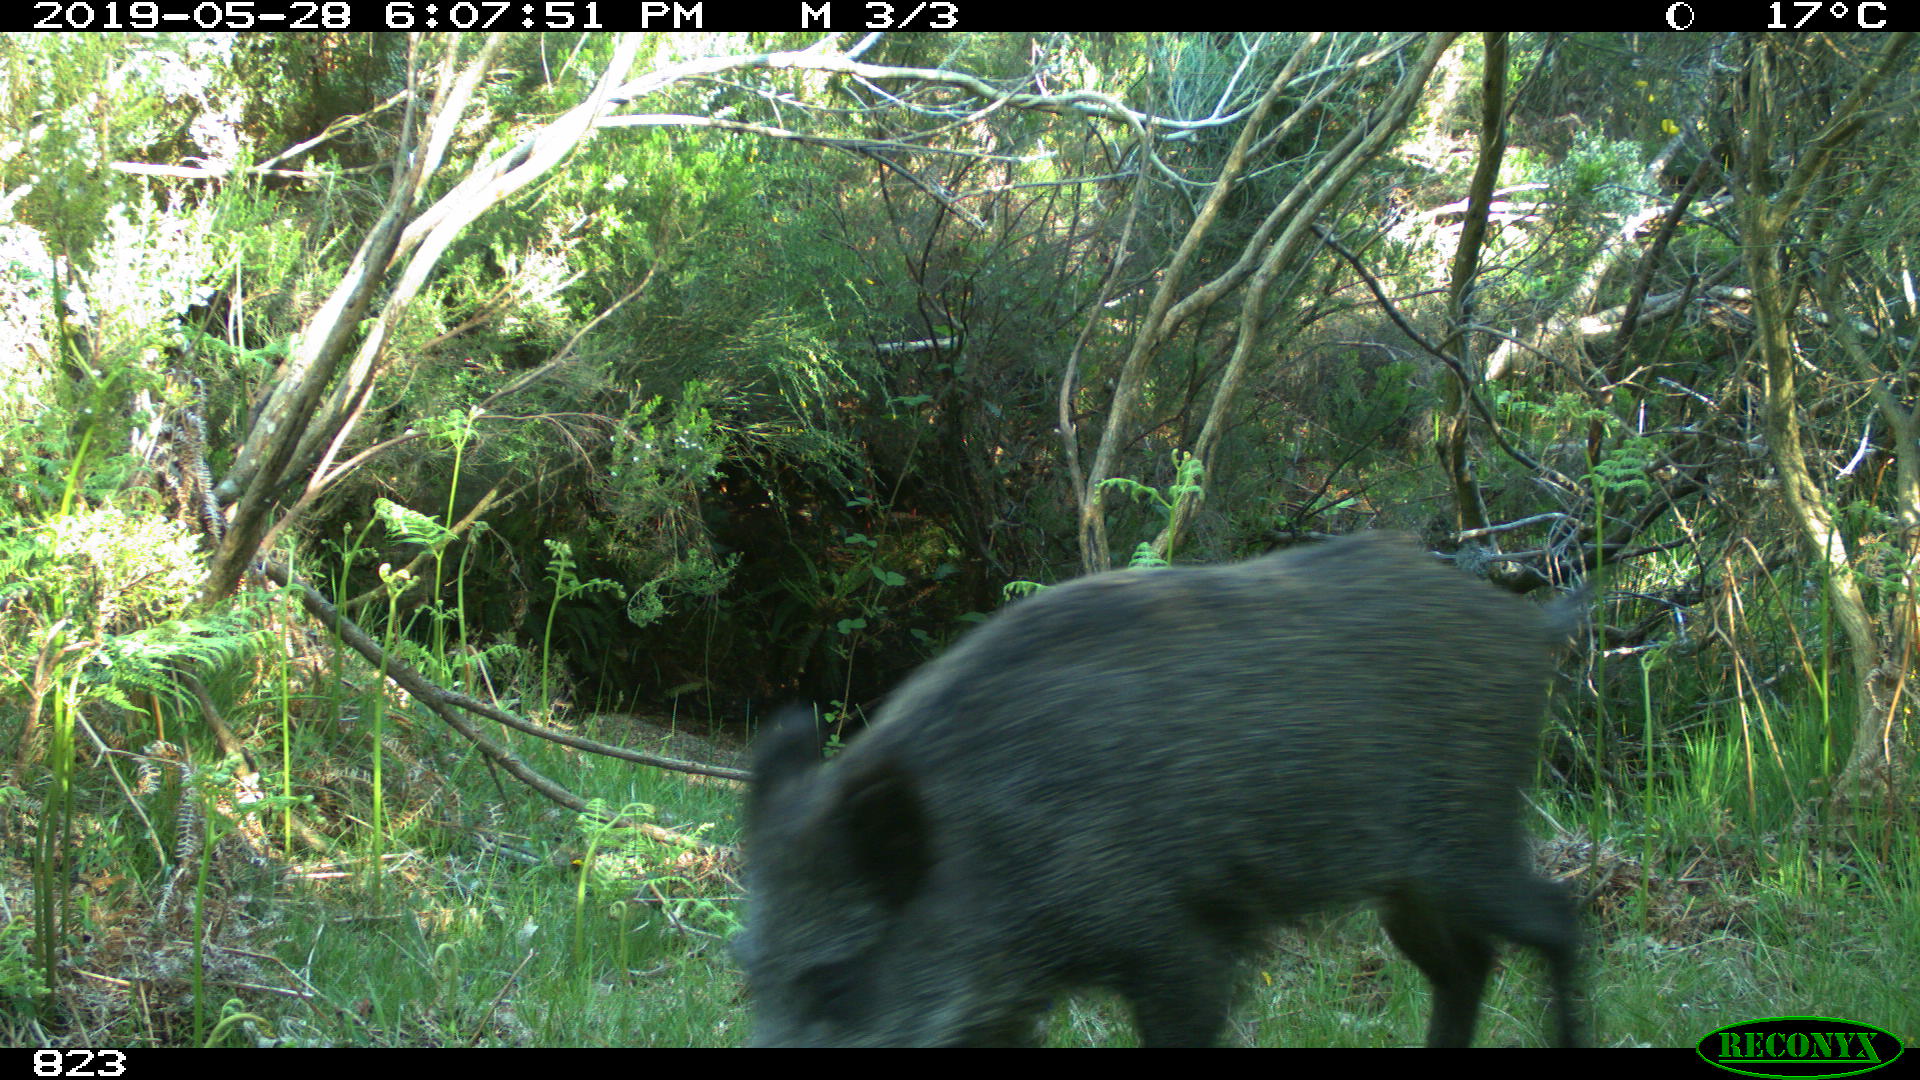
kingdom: Animalia
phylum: Chordata
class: Mammalia
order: Artiodactyla
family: Suidae
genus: Sus
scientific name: Sus scrofa
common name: Wild boar
